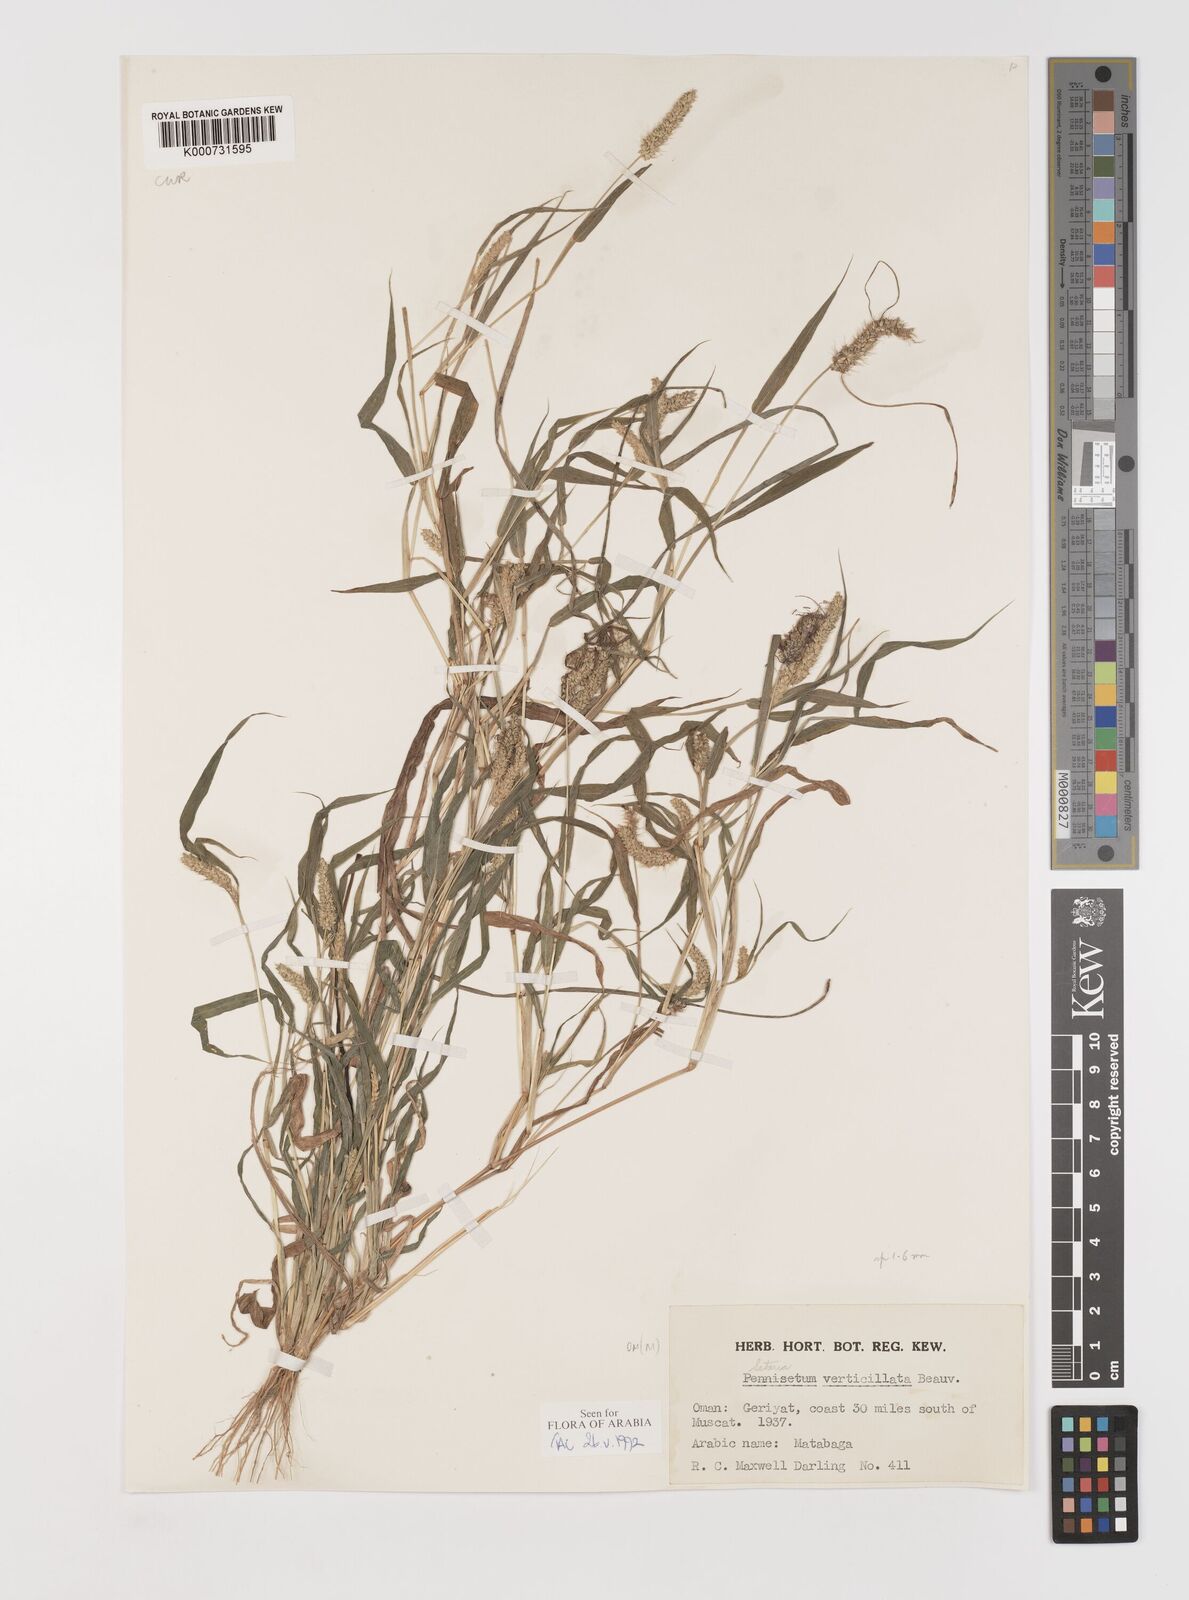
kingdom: Plantae
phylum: Tracheophyta
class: Liliopsida
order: Poales
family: Poaceae
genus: Setaria
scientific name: Setaria verticillata
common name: Hooked bristlegrass
